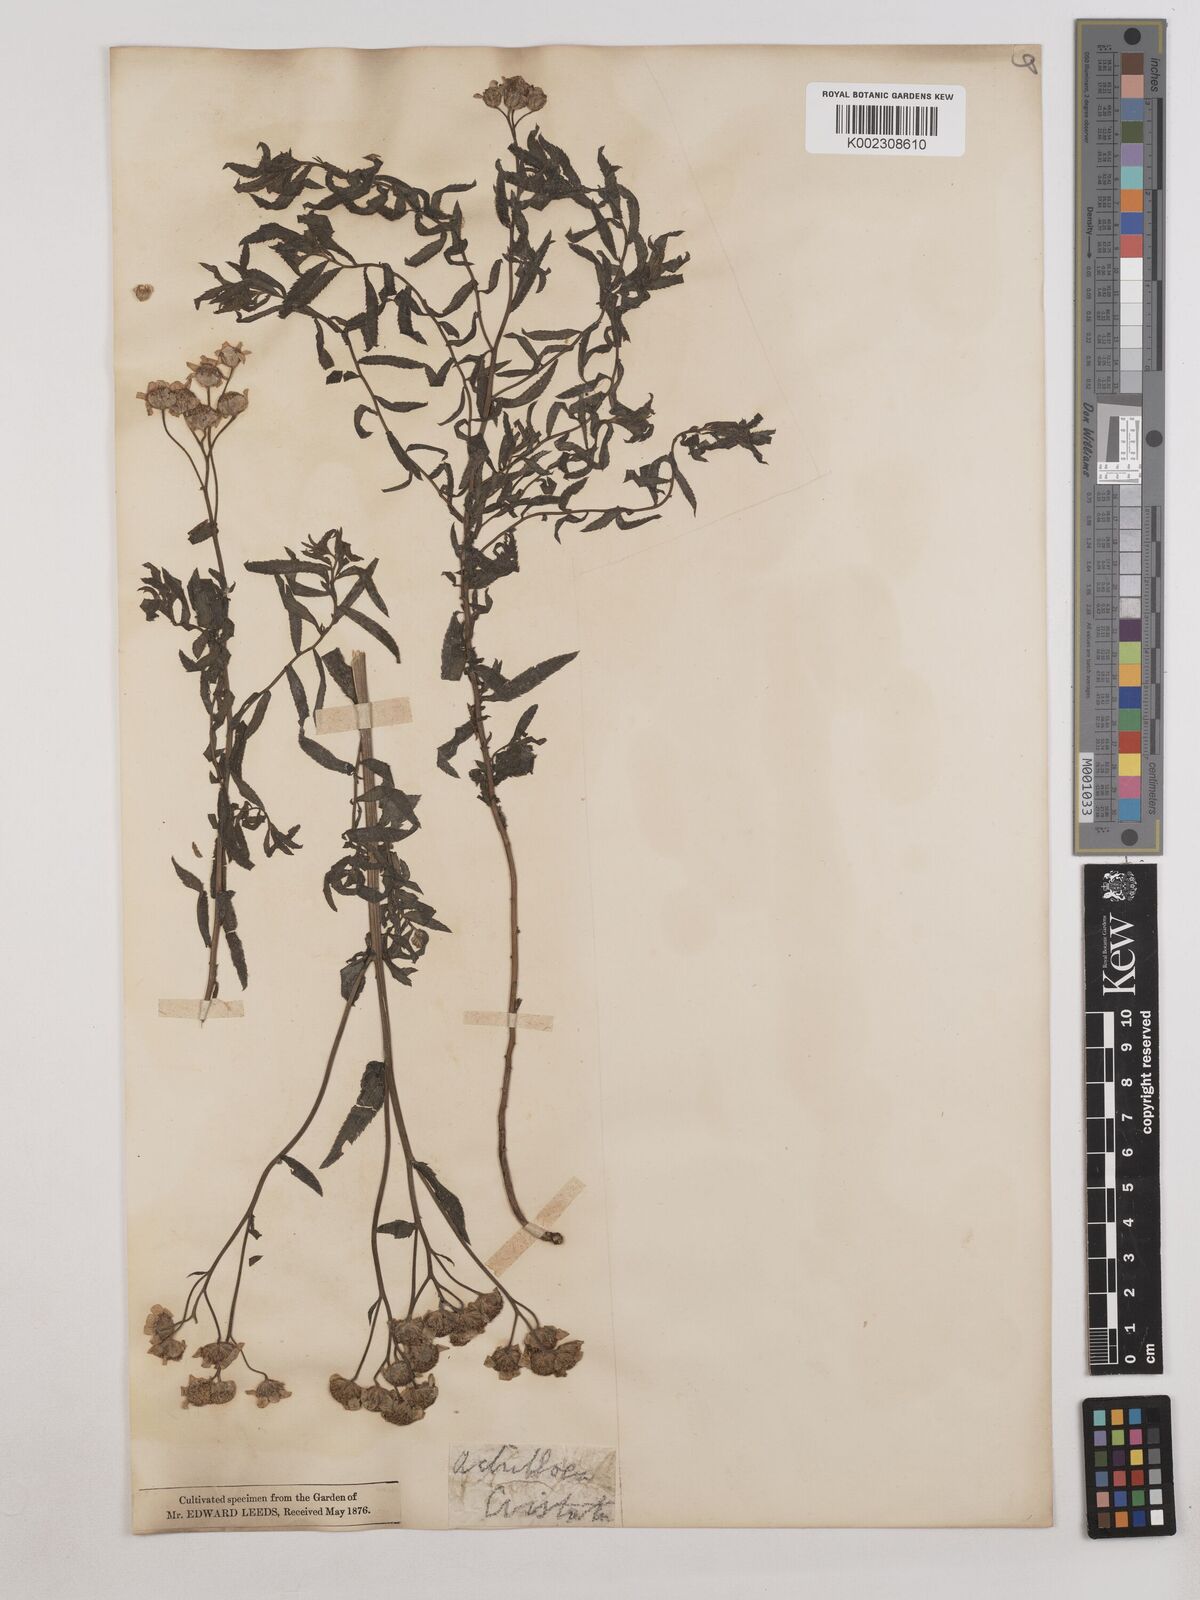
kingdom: Plantae
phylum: Tracheophyta
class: Magnoliopsida
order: Asterales
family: Asteraceae
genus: Achillea
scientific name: Achillea impatiens
